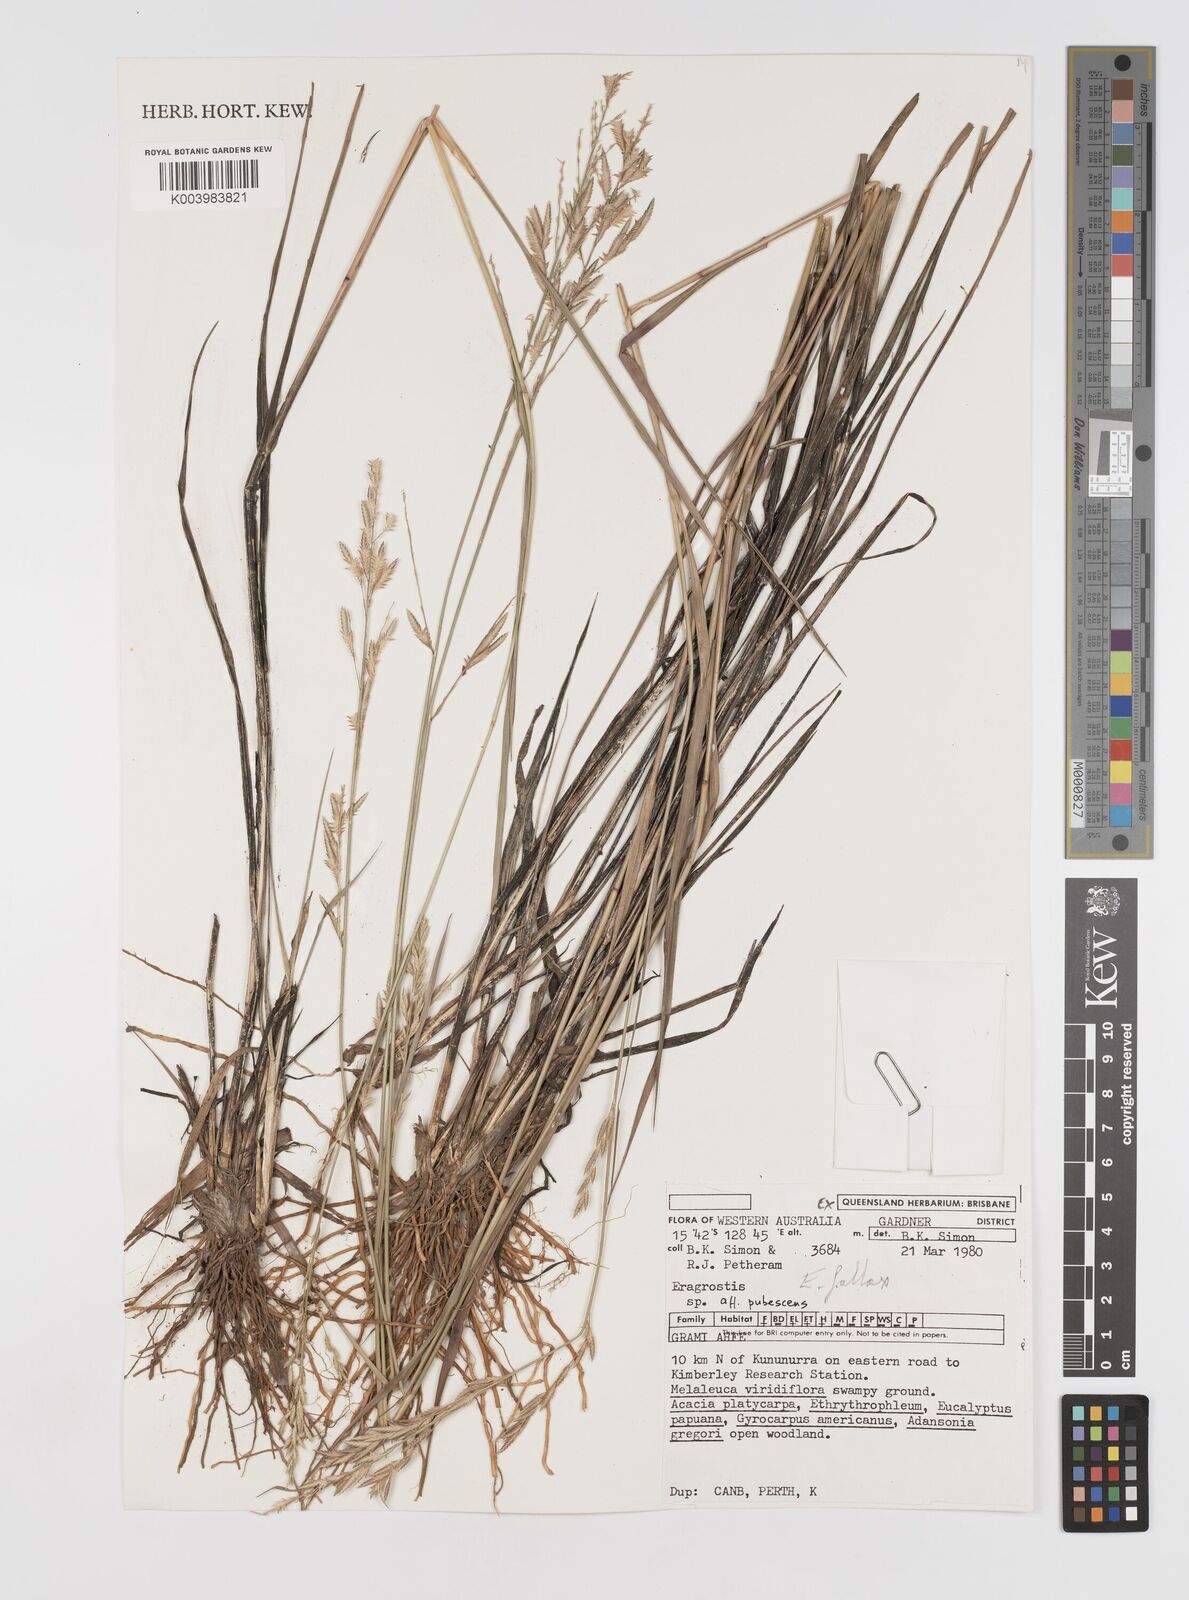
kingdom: Plantae
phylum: Tracheophyta
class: Liliopsida
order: Poales
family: Poaceae
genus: Eragrostis
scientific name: Eragrostis fallax
